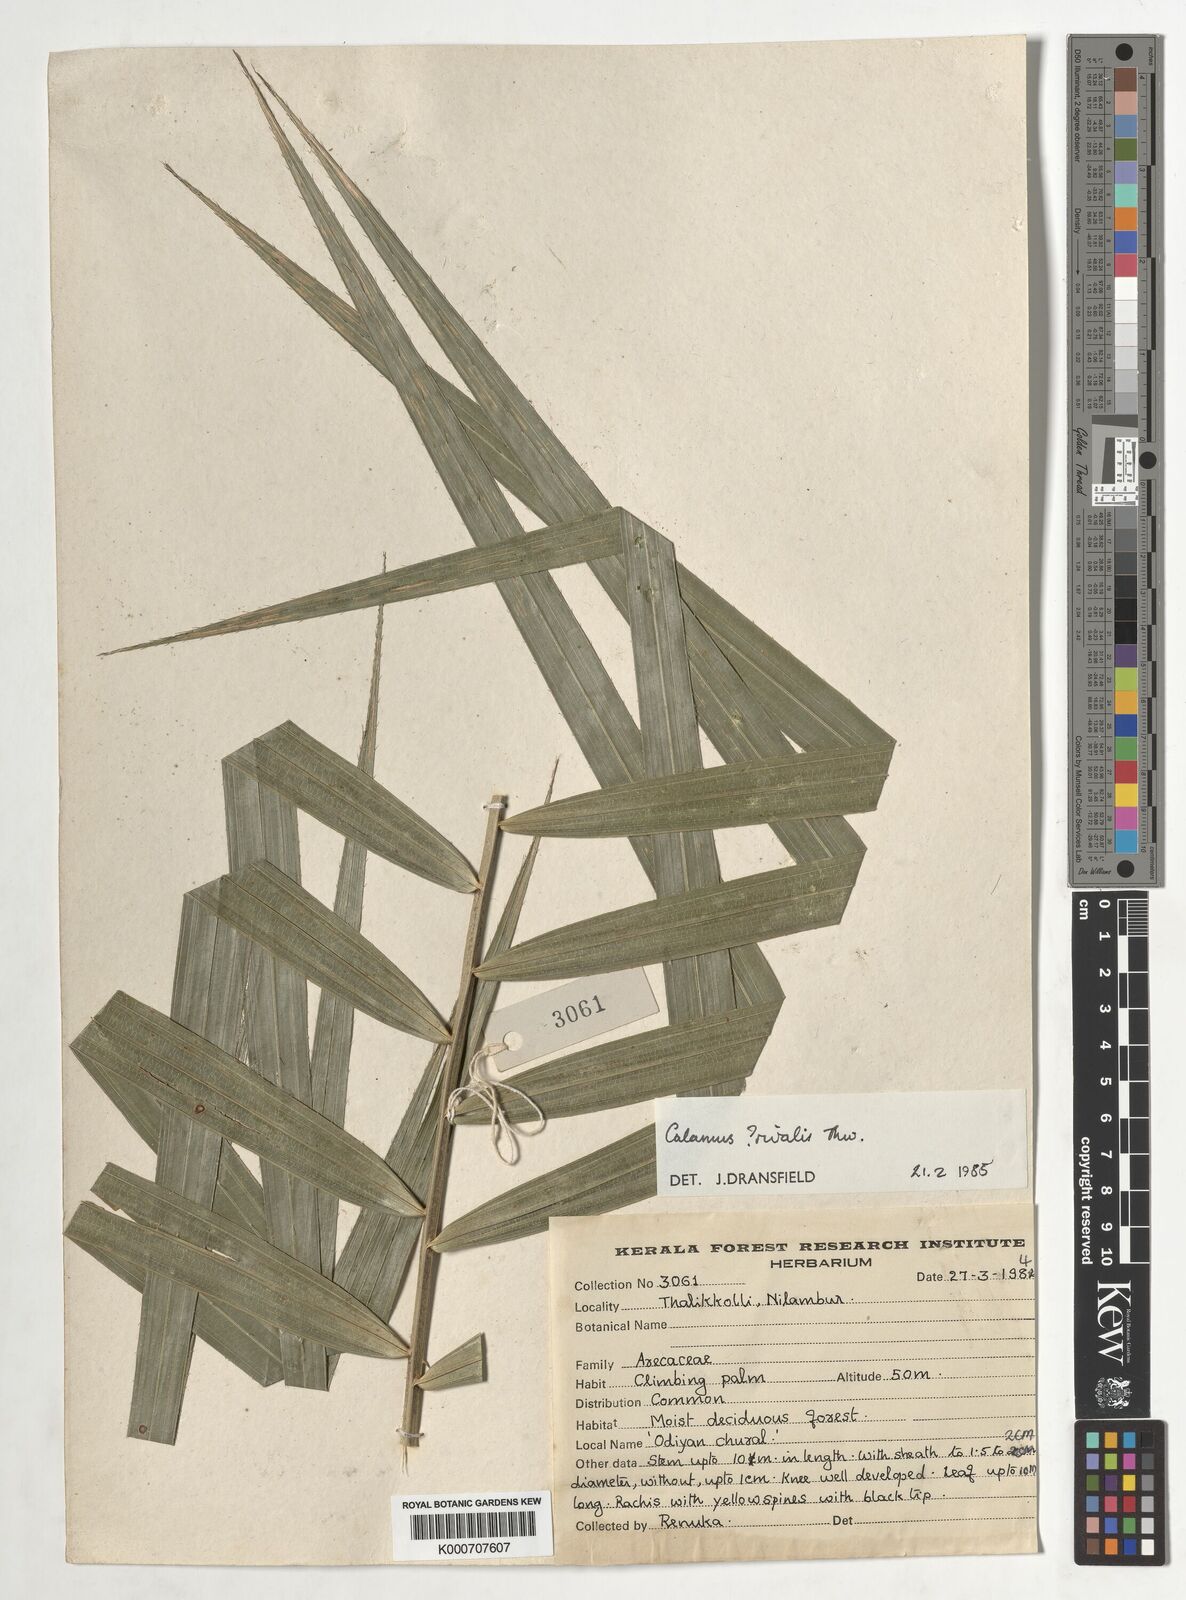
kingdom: Plantae
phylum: Tracheophyta
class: Liliopsida
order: Arecales
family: Arecaceae
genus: Calamus
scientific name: Calamus metzianus
